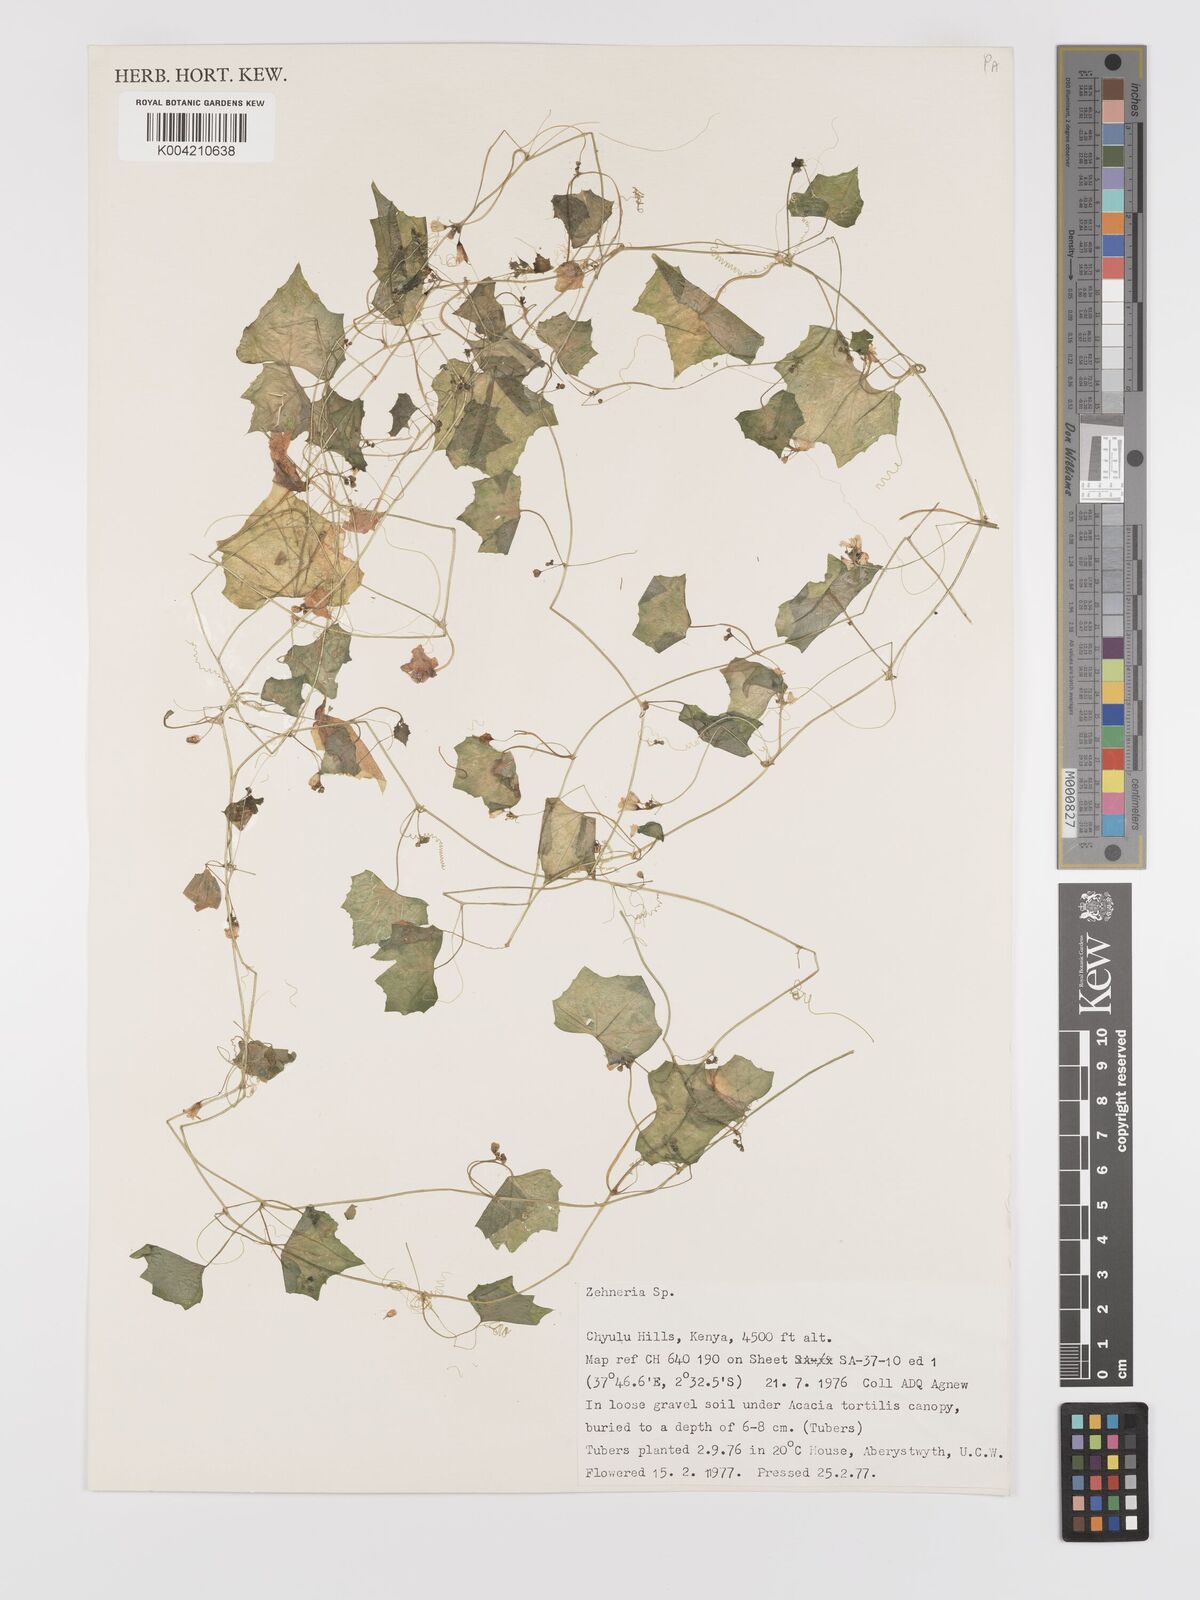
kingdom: Plantae
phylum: Tracheophyta
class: Magnoliopsida
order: Cucurbitales
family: Cucurbitaceae
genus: Zehneria
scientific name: Zehneria
